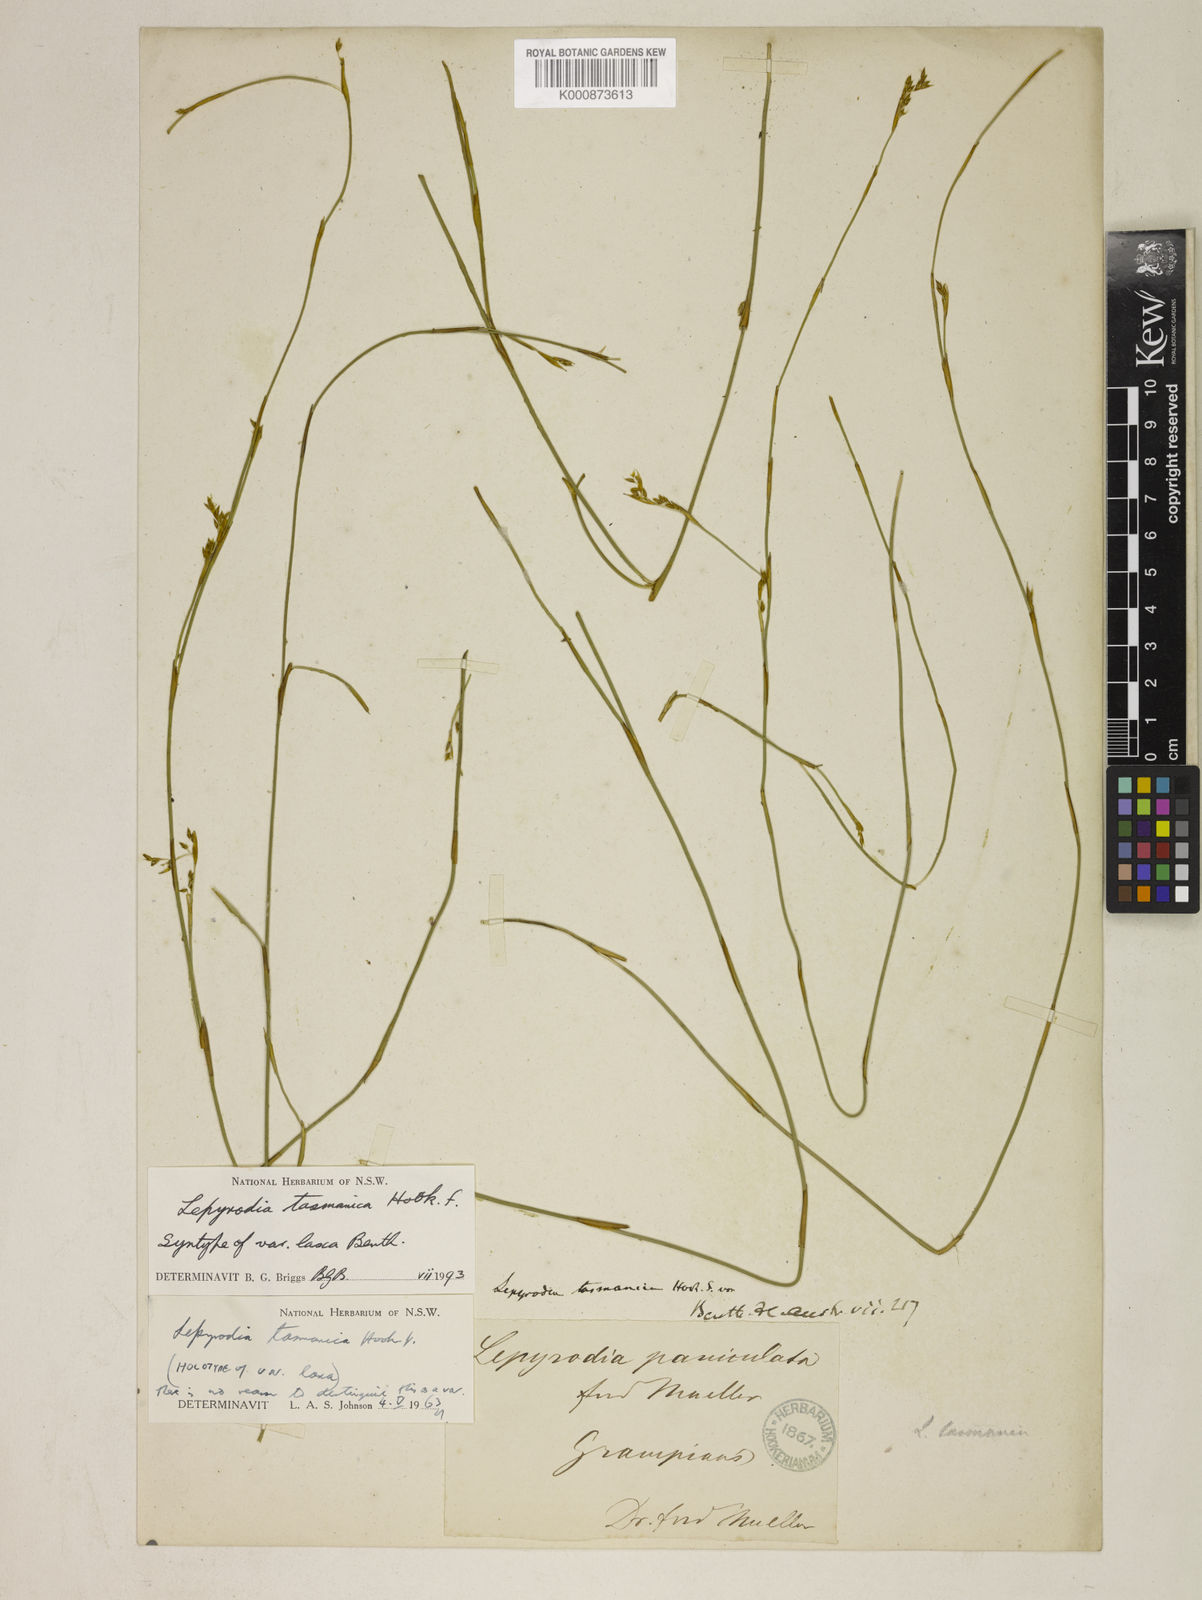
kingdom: Plantae
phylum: Tracheophyta
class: Liliopsida
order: Poales
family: Restionaceae
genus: Sporadanthus
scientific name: Sporadanthus tasmanicus
